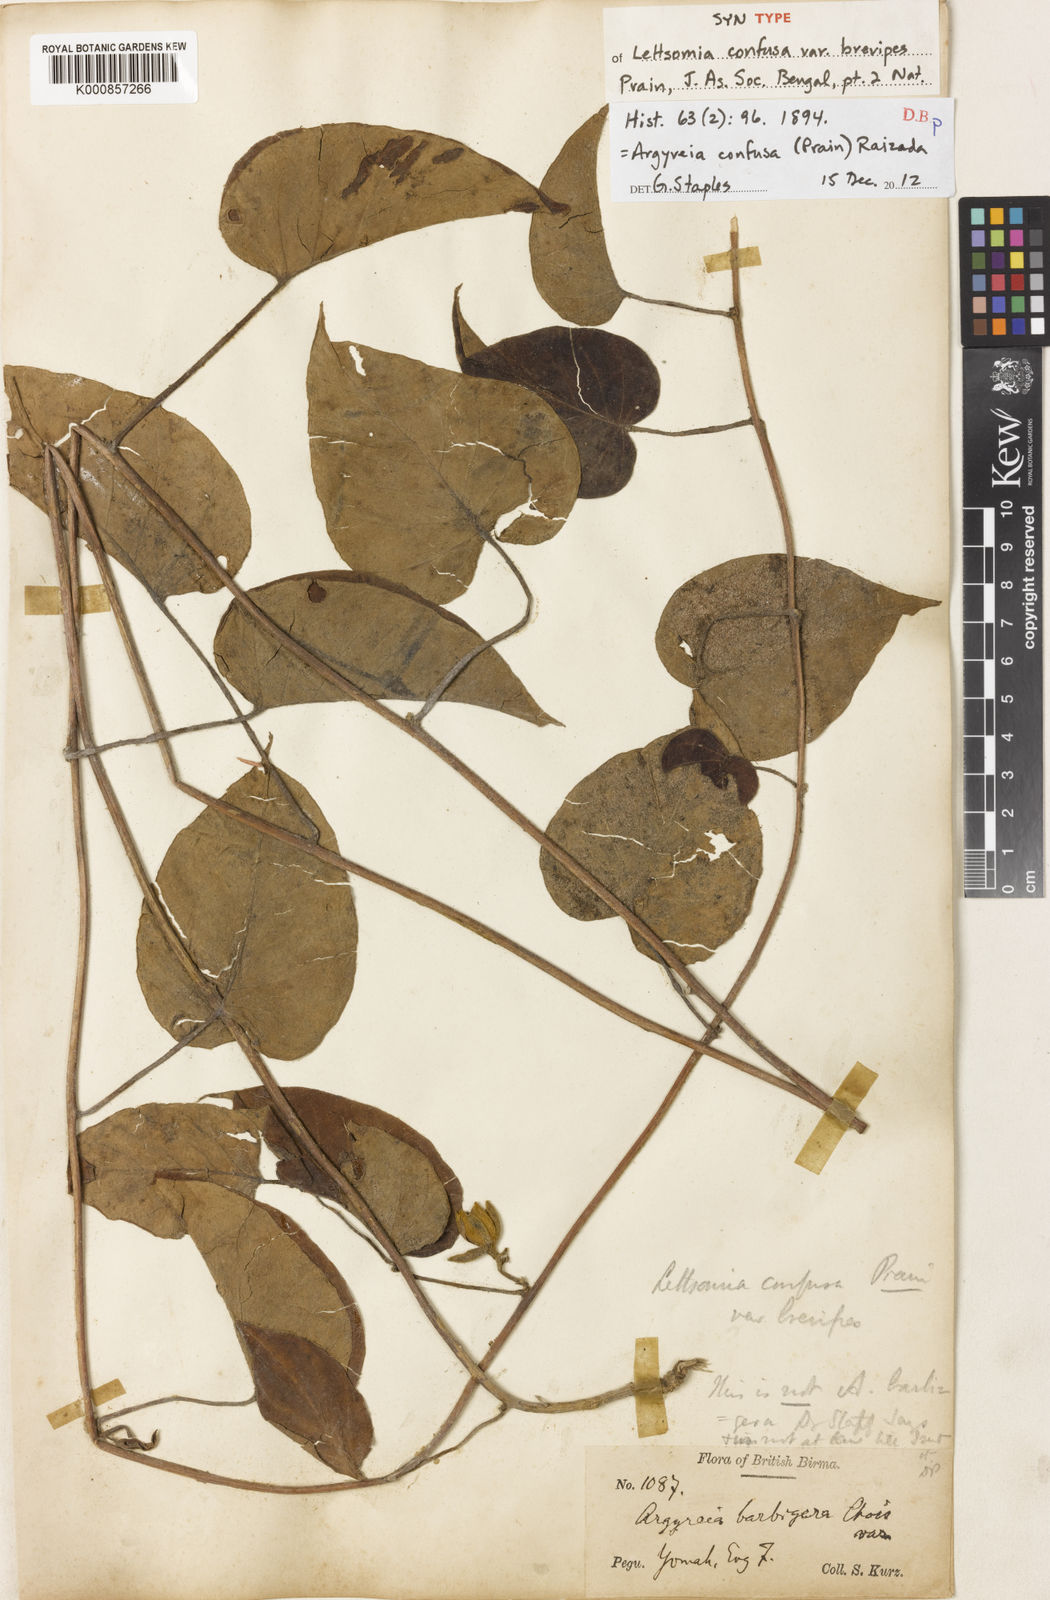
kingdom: Plantae
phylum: Tracheophyta
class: Magnoliopsida
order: Solanales
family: Convolvulaceae
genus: Argyreia
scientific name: Argyreia confusa
